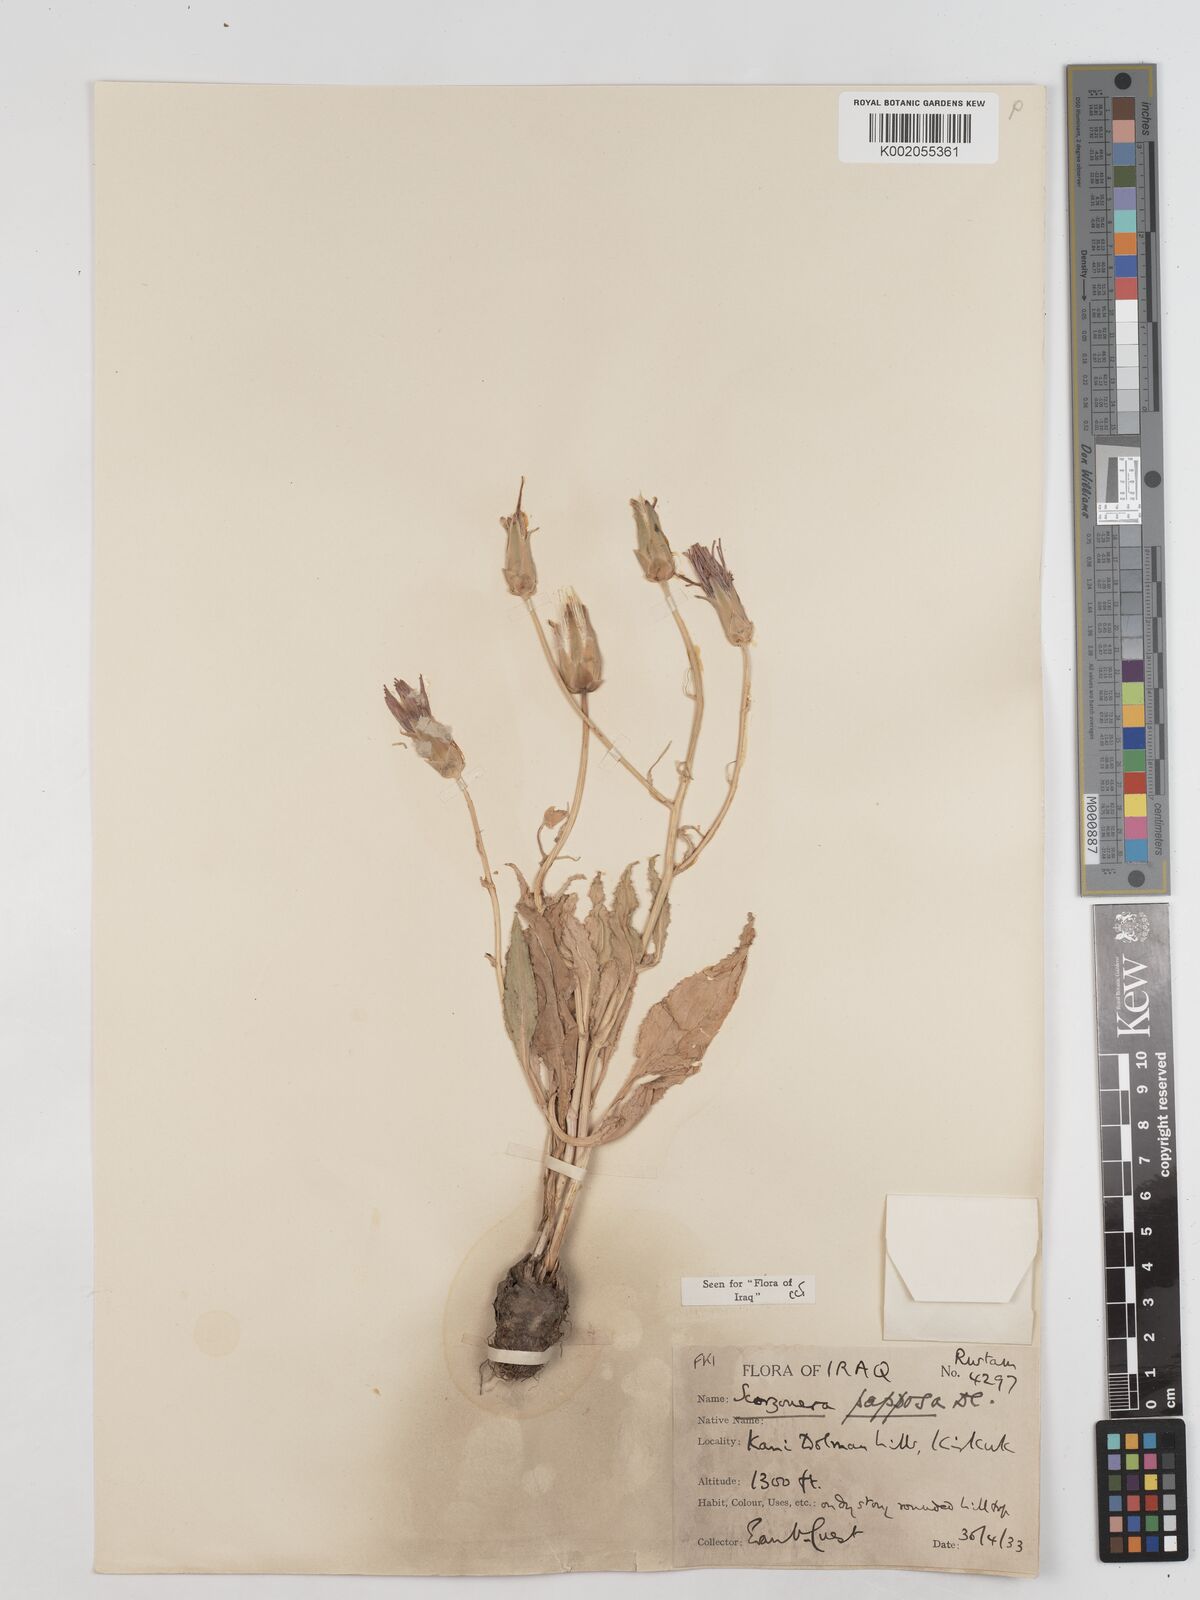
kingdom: Plantae
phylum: Tracheophyta
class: Magnoliopsida
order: Asterales
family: Asteraceae
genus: Pseudopodospermum
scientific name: Pseudopodospermum papposum
